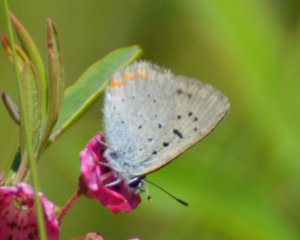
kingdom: Animalia
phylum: Arthropoda
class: Insecta
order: Lepidoptera
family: Sesiidae
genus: Sesia
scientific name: Sesia Lycaena epixanthe
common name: Bog Copper
